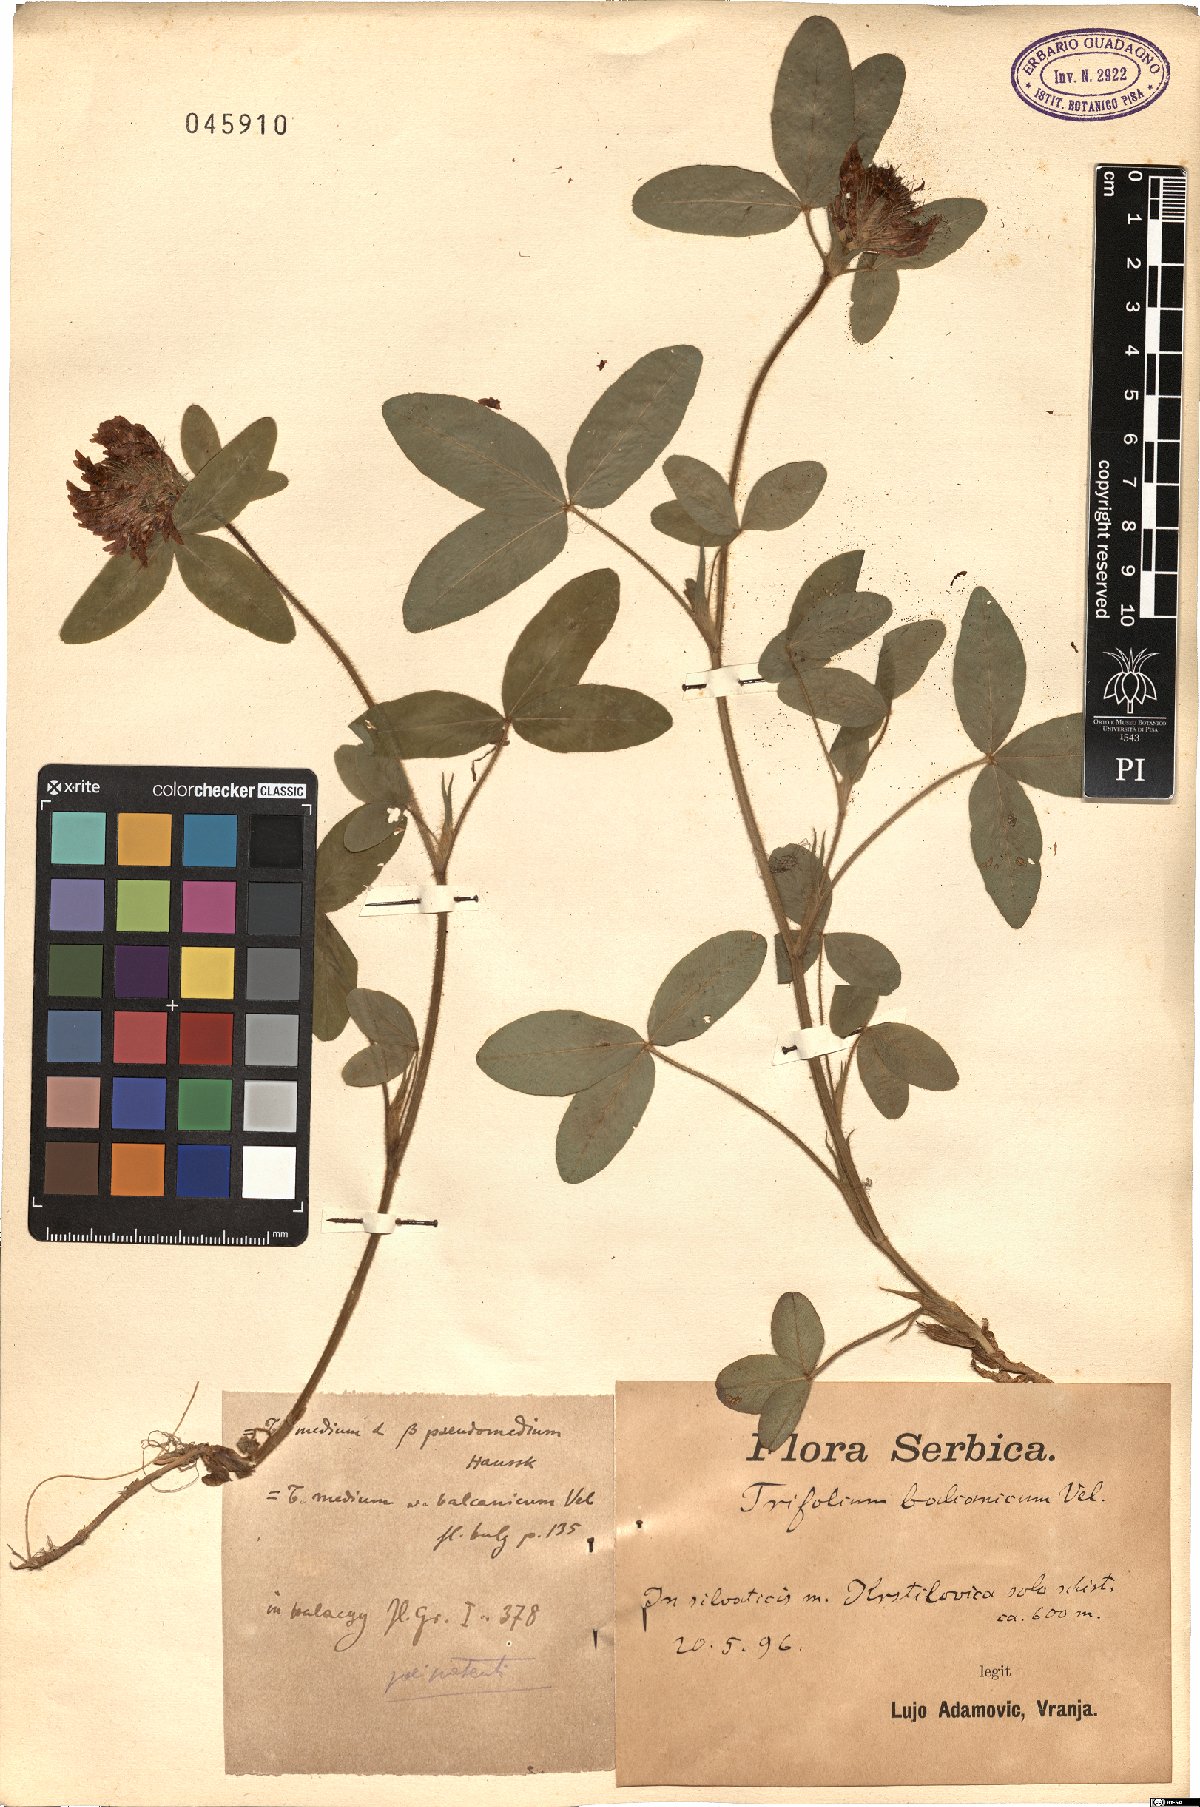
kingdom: Plantae
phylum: Tracheophyta
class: Magnoliopsida
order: Fabales
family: Fabaceae
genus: Trifolium
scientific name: Trifolium pseudomedium
